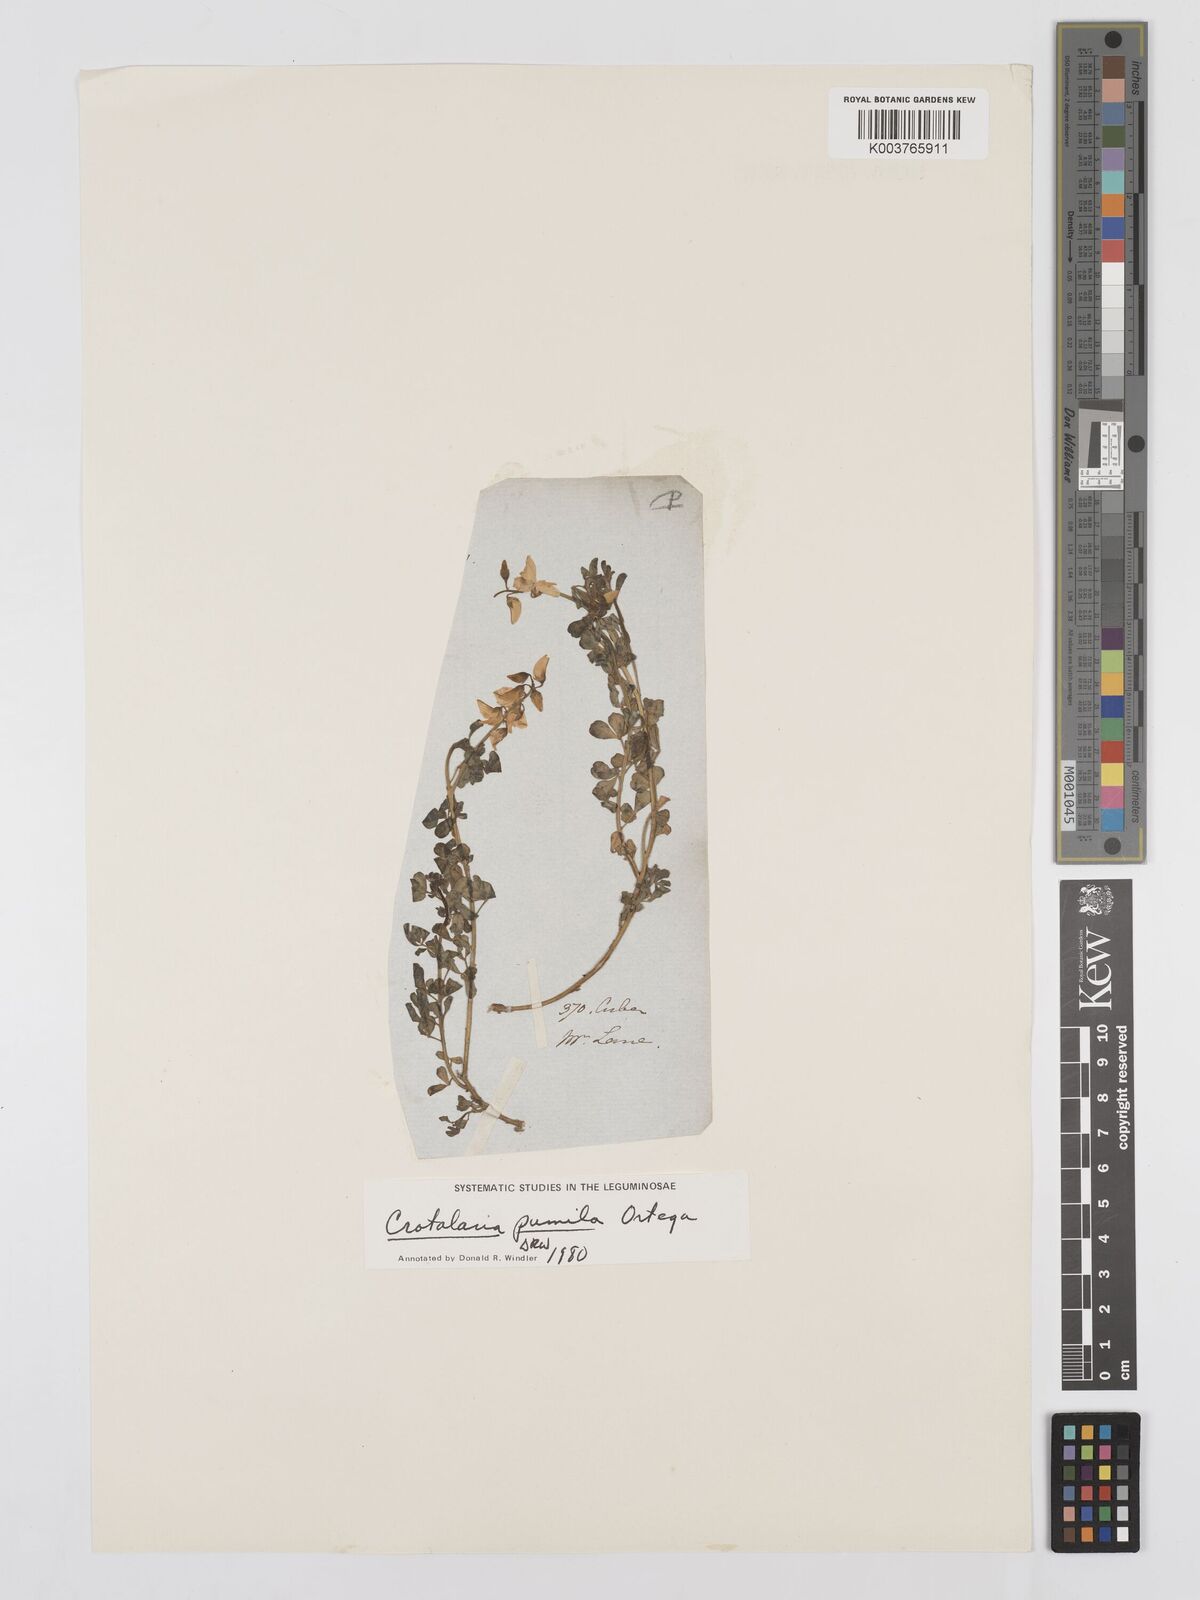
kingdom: Plantae
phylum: Tracheophyta
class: Magnoliopsida
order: Fabales
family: Fabaceae
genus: Crotalaria
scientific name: Crotalaria pumila
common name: Low rattlebox
